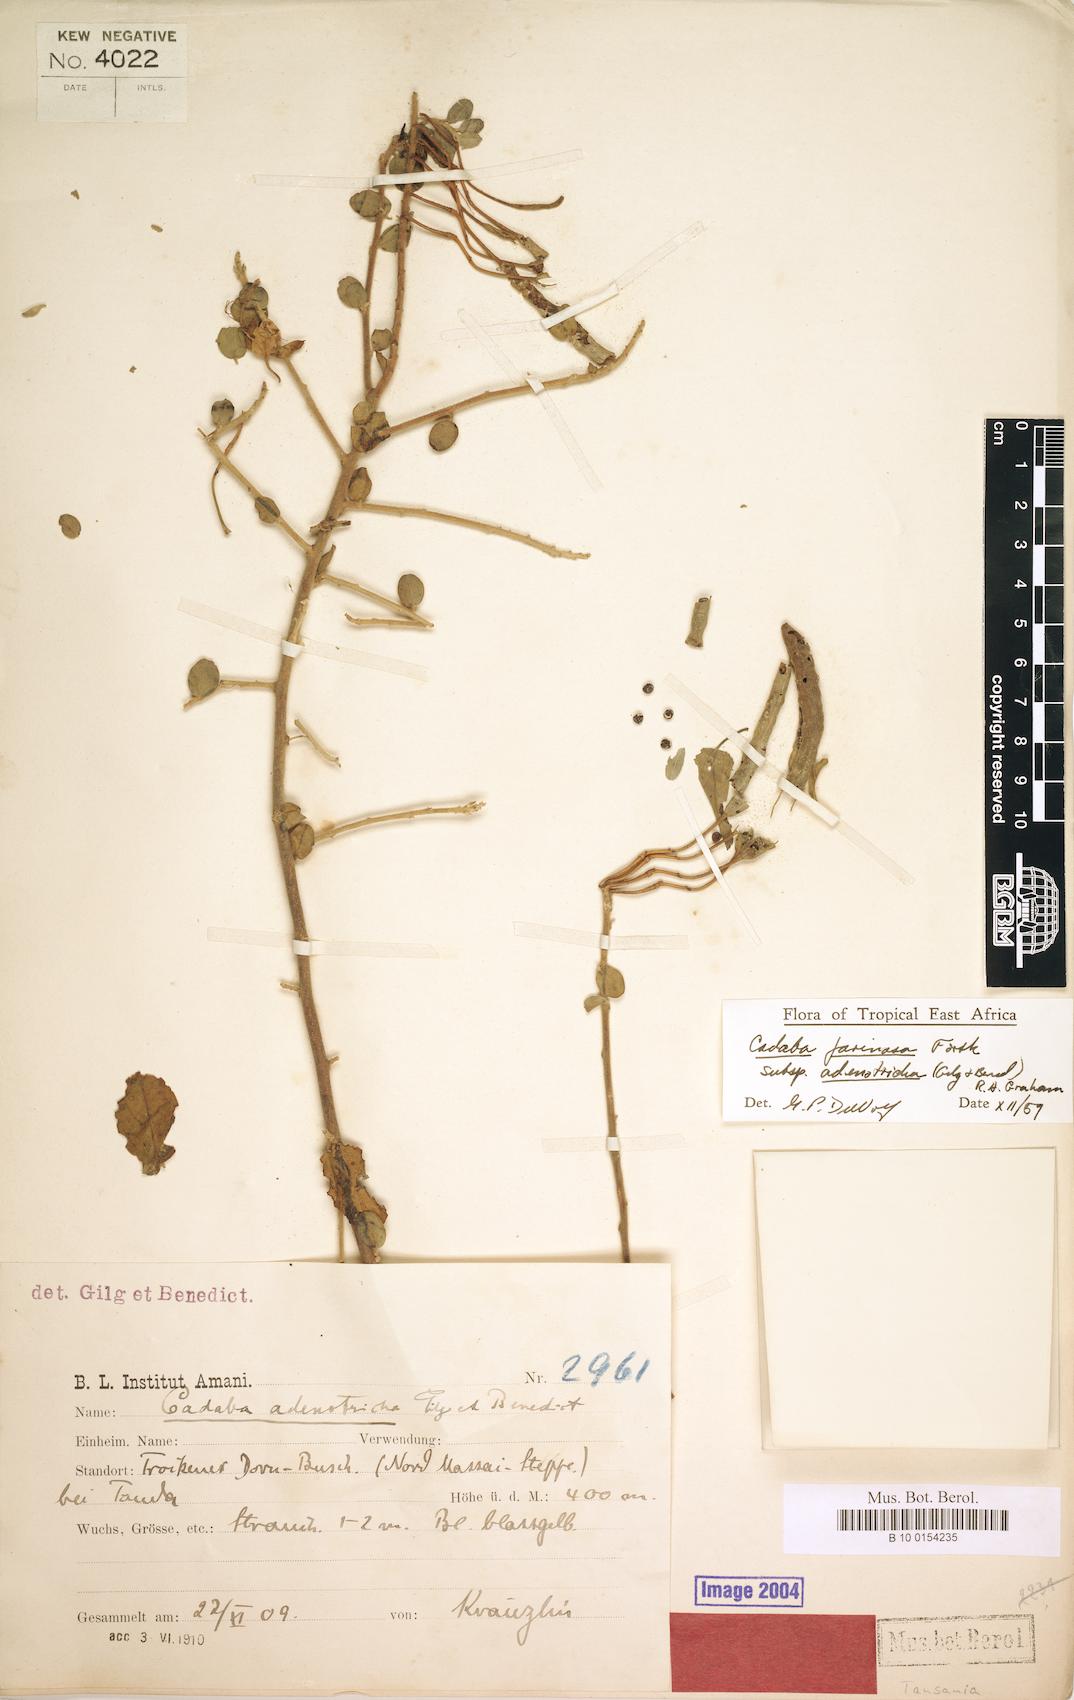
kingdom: Plantae
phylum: Tracheophyta
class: Magnoliopsida
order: Brassicales
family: Capparaceae
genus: Cadaba
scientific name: Cadaba farinosa
